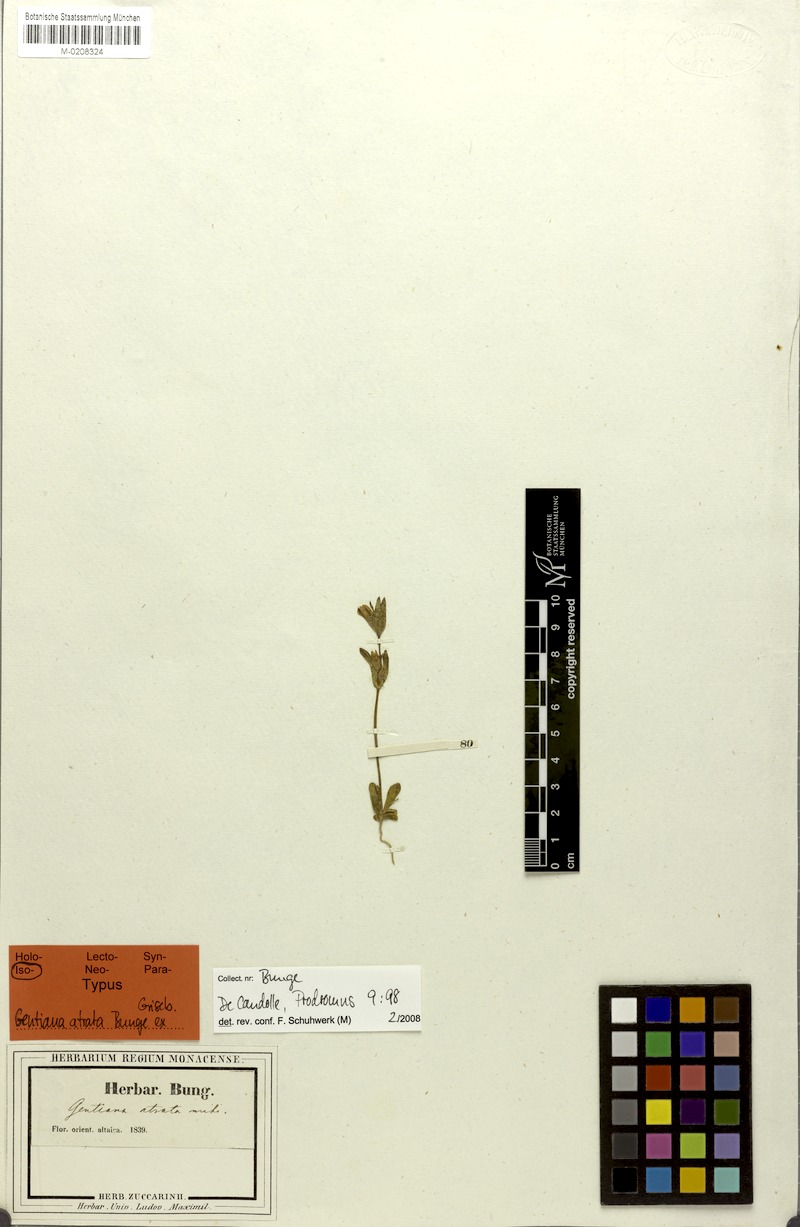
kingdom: Plantae
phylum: Tracheophyta
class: Magnoliopsida
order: Gentianales
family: Gentianaceae
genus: Gentianella
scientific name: Gentianella atrata
